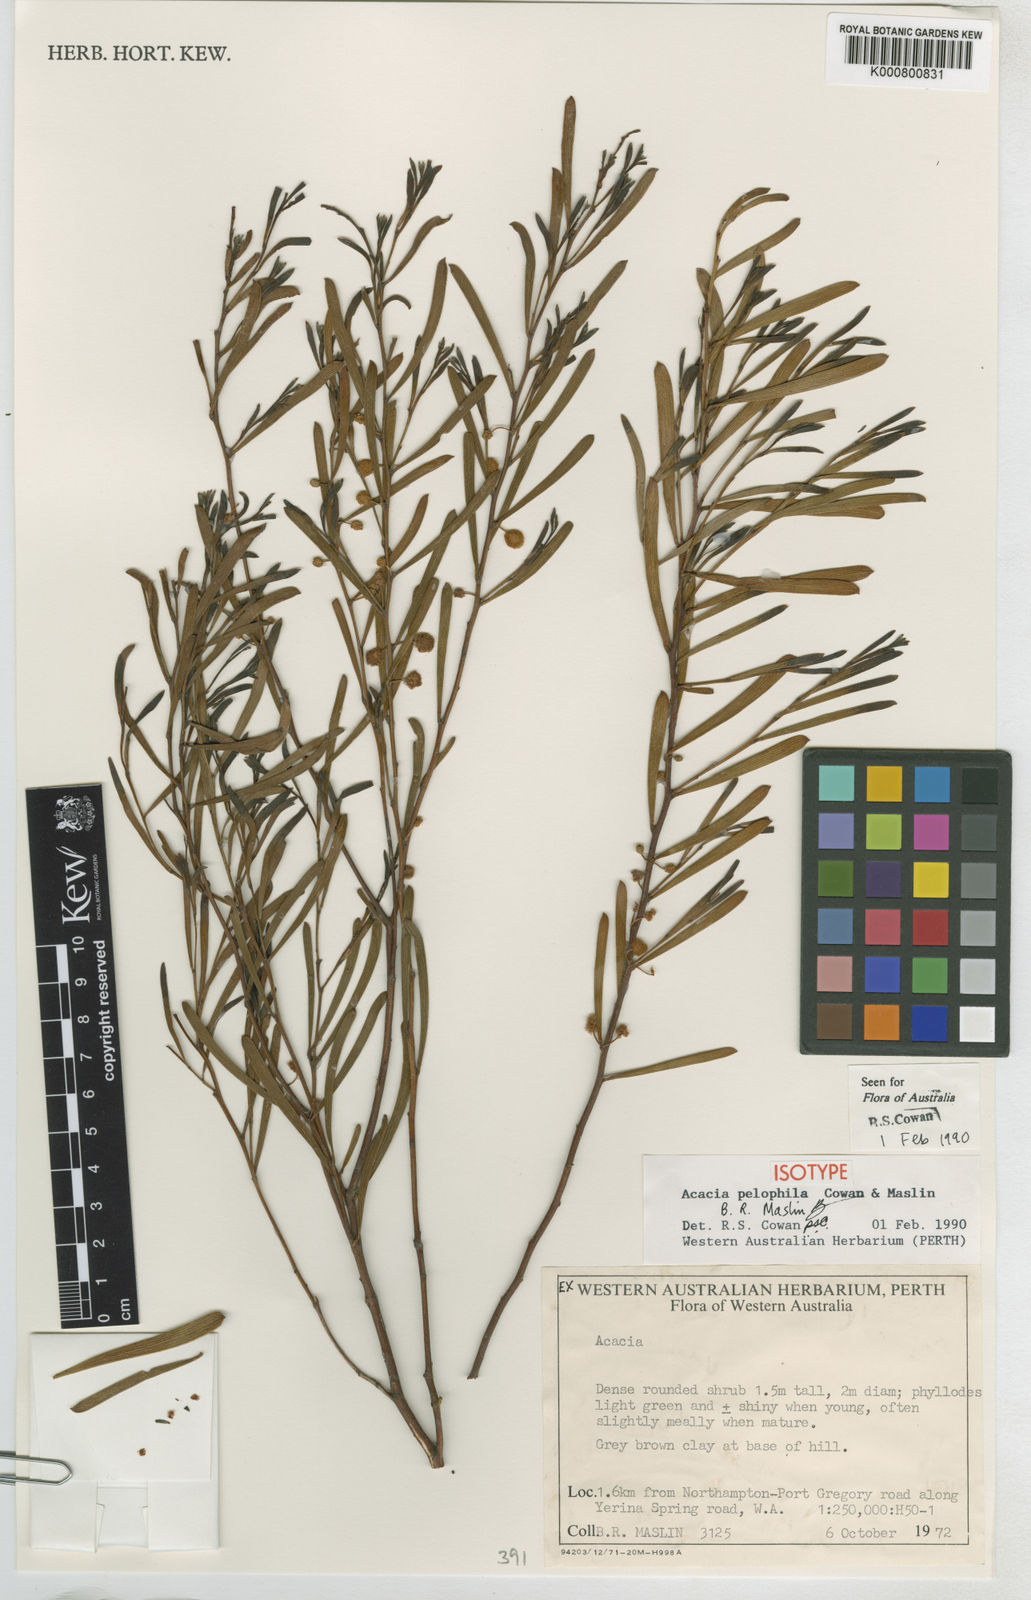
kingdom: Plantae
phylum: Tracheophyta
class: Magnoliopsida
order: Fabales
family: Fabaceae
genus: Acacia
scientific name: Acacia pelophila
